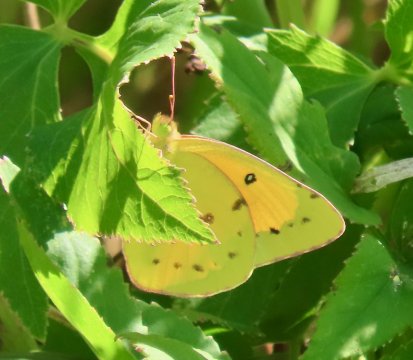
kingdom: Animalia
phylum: Arthropoda
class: Insecta
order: Lepidoptera
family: Pieridae
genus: Colias
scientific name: Colias eurytheme
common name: Orange Sulphur
